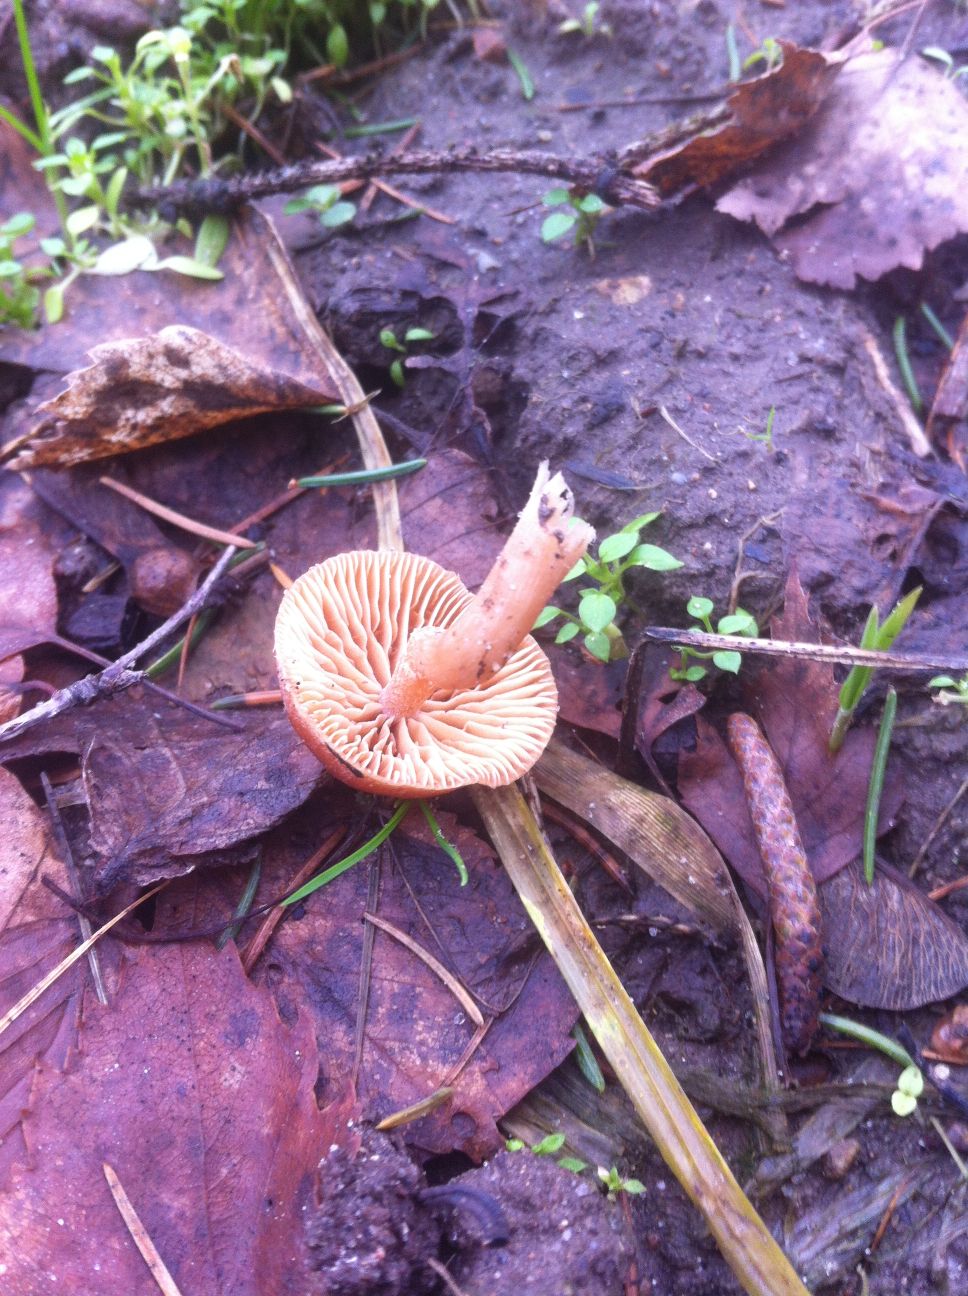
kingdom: Fungi
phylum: Basidiomycota
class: Agaricomycetes
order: Agaricales
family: Tubariaceae
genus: Tubaria
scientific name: Tubaria furfuracea
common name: kliddet fnughat
